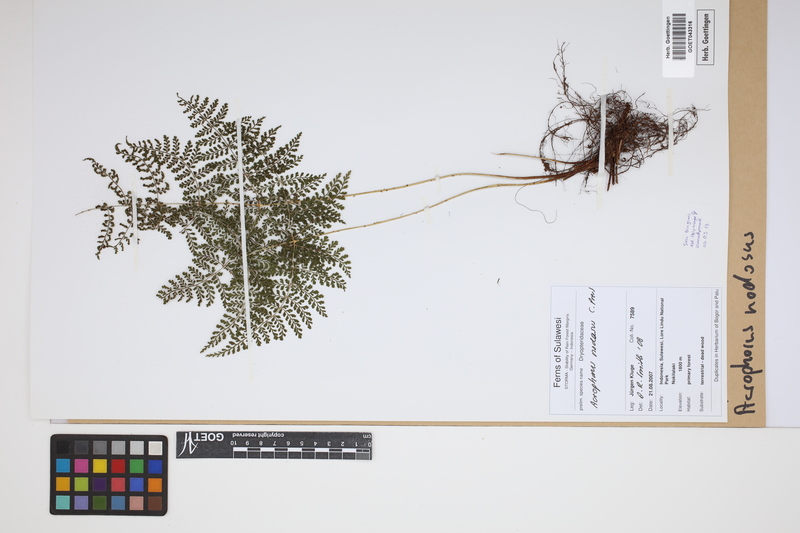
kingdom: Plantae
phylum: Tracheophyta
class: Polypodiopsida
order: Polypodiales
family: Dryopteridaceae
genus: Dryopteris
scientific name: Dryopteris nodosa
